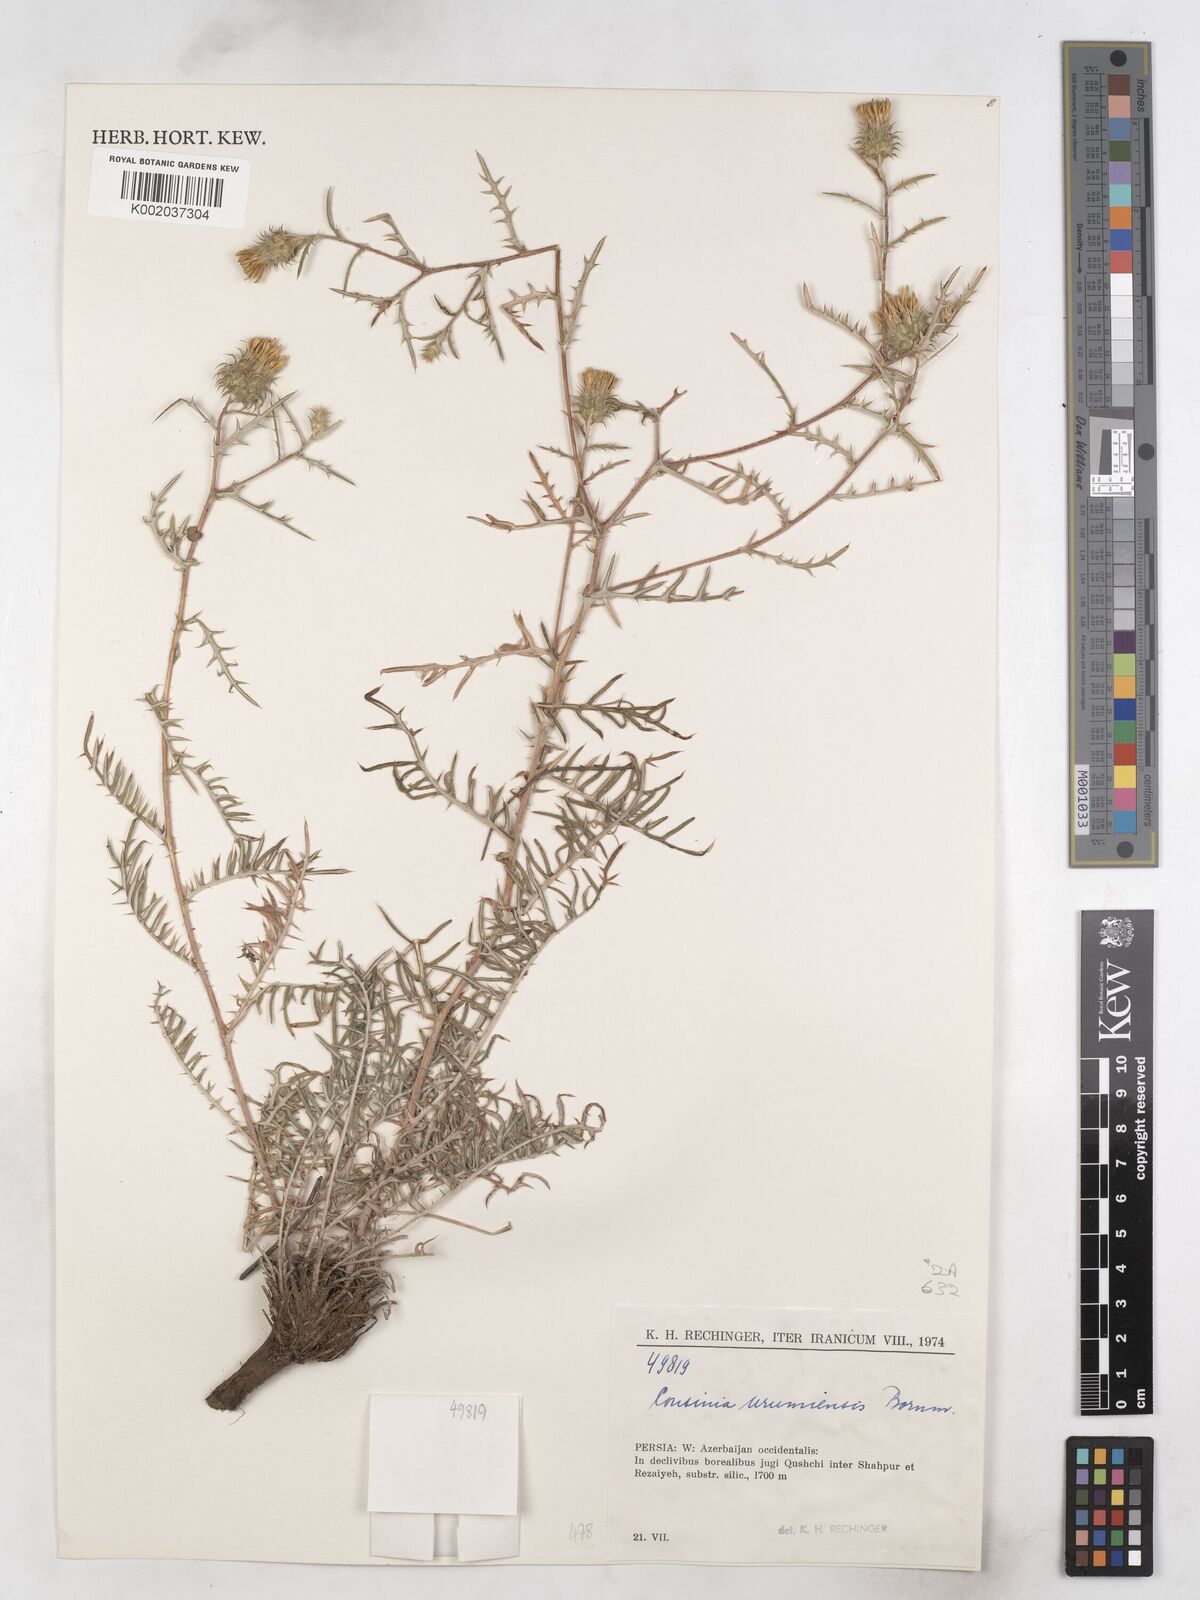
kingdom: Plantae
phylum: Tracheophyta
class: Magnoliopsida
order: Asterales
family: Asteraceae
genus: Cousinia
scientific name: Cousinia armena
